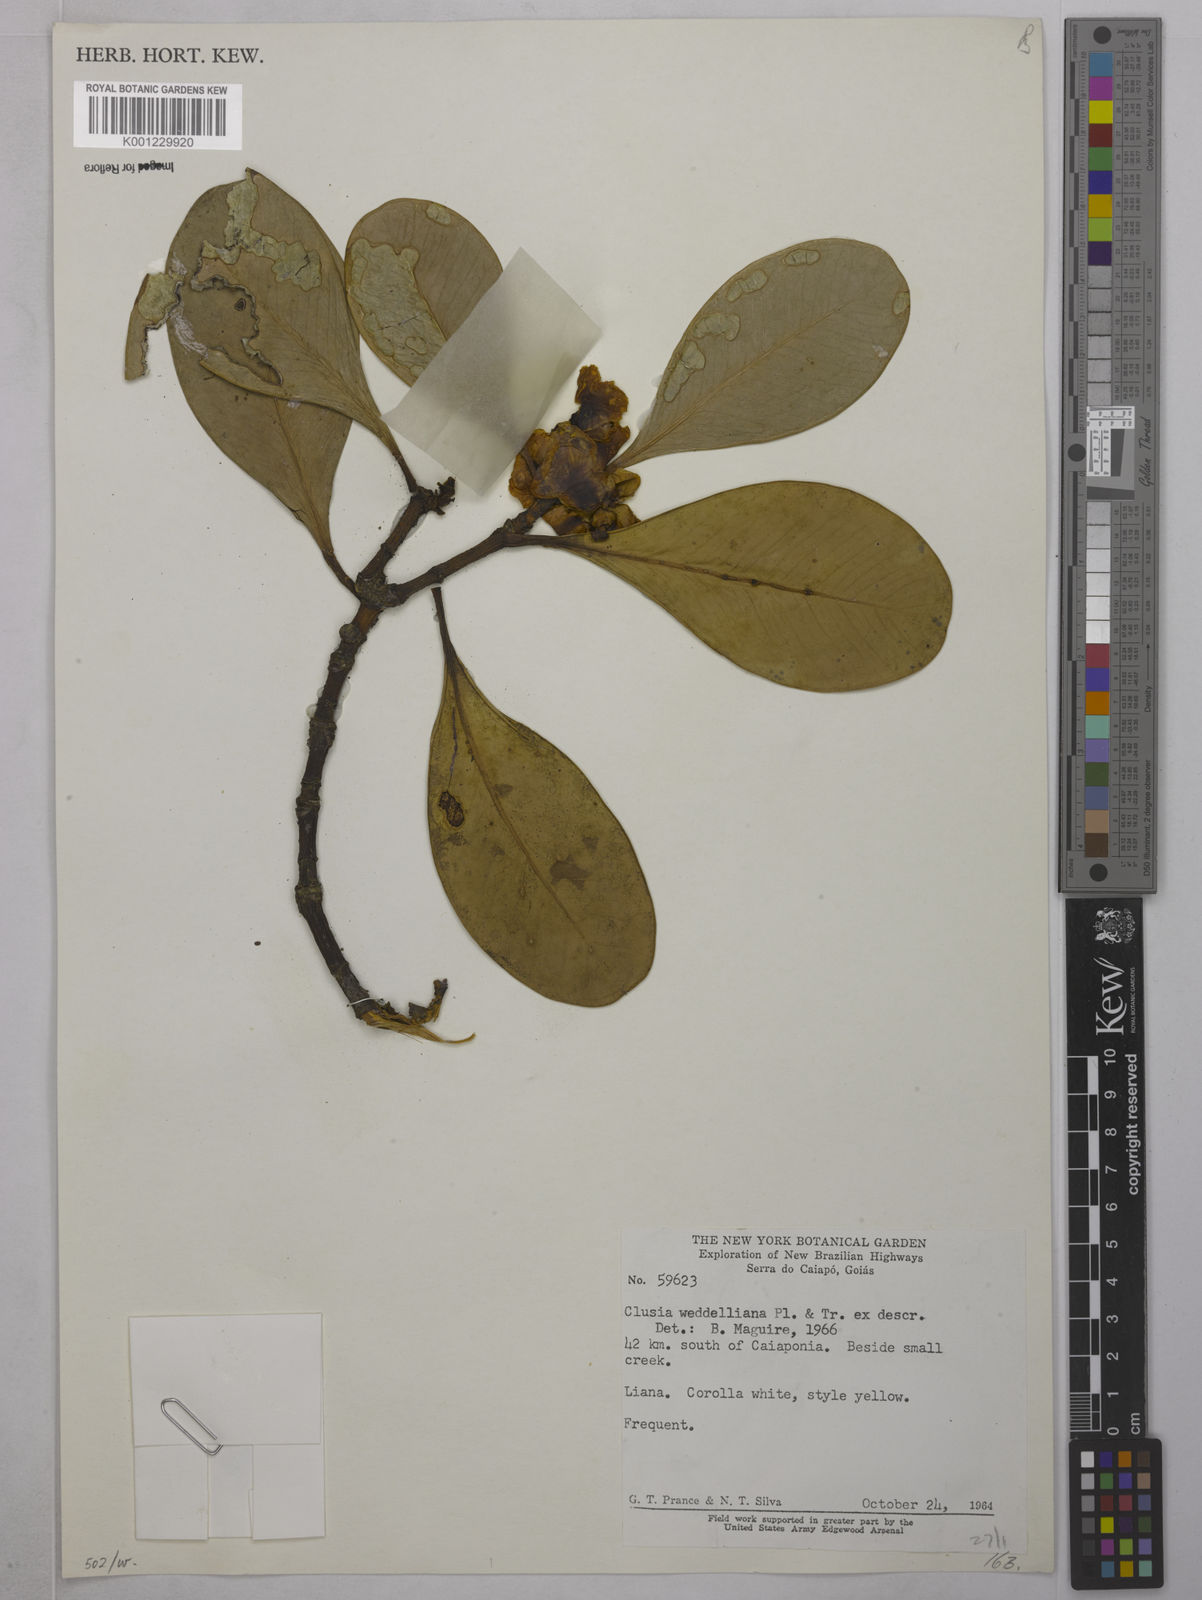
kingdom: Plantae
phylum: Tracheophyta
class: Magnoliopsida
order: Malpighiales
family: Clusiaceae
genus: Clusia
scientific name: Clusia weddelliana
